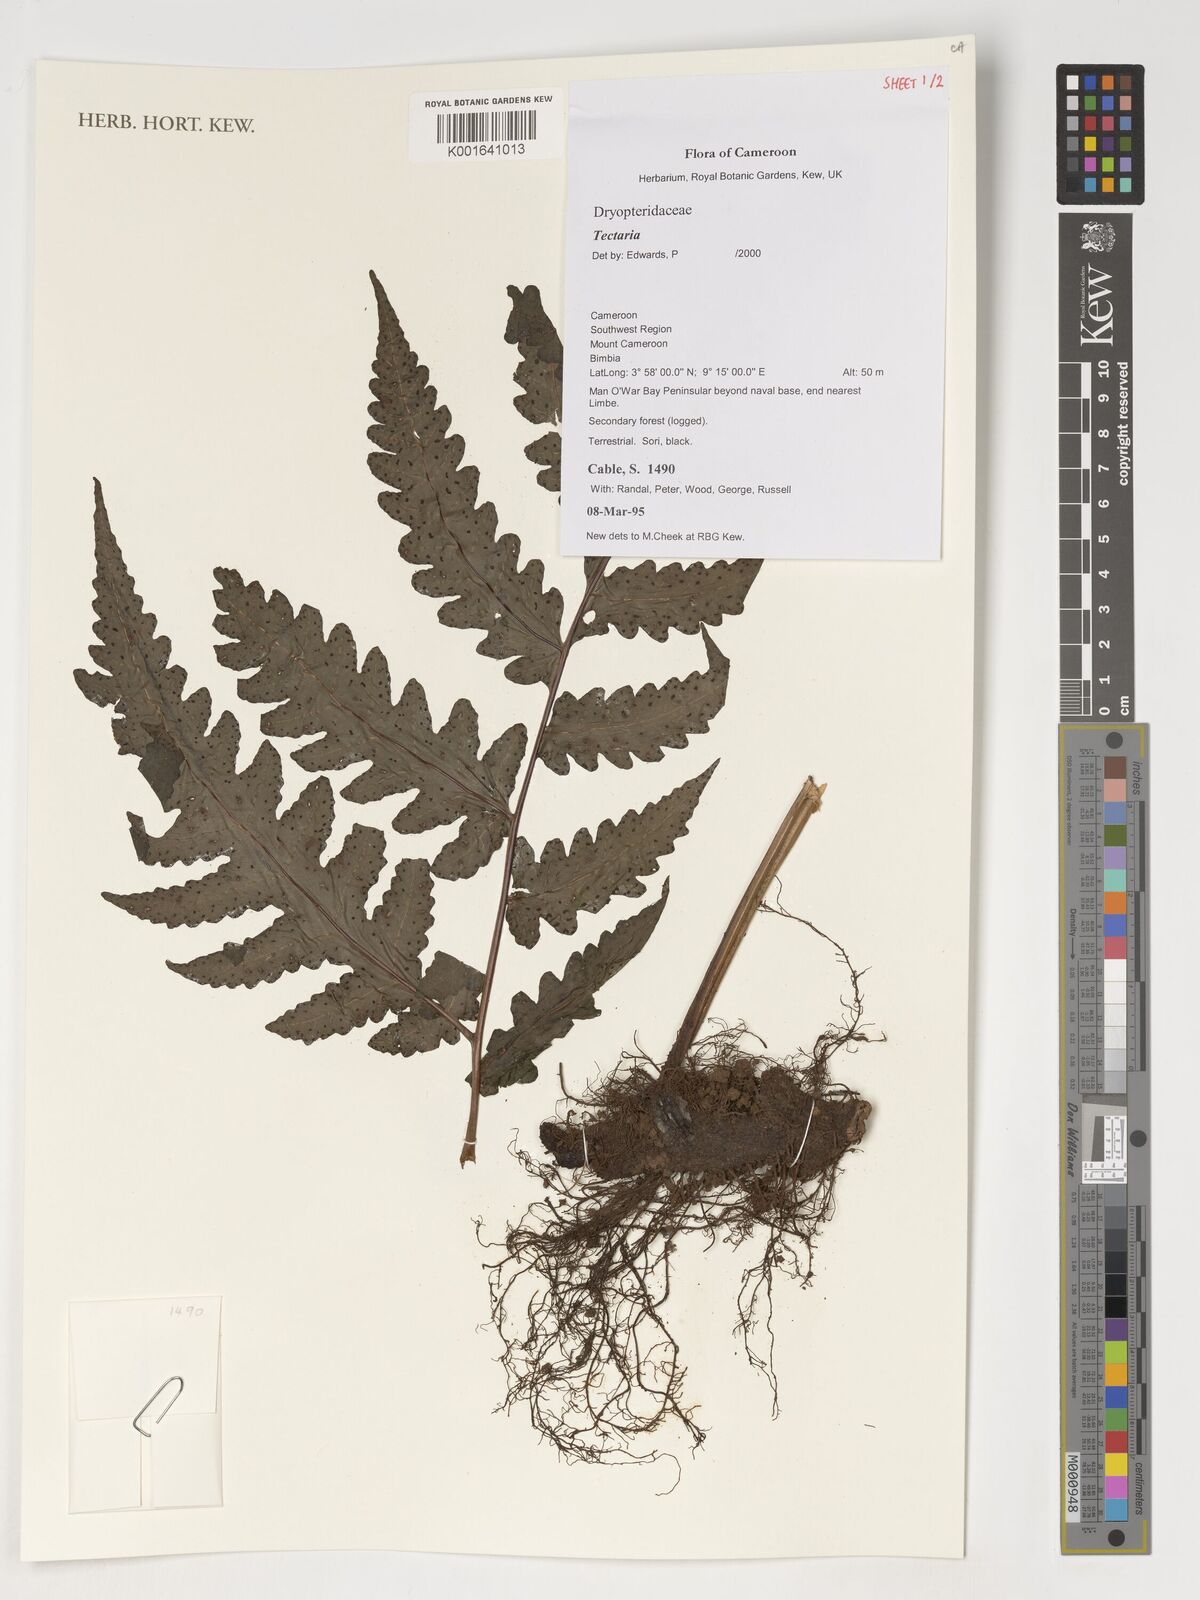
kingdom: Plantae
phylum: Tracheophyta
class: Polypodiopsida
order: Polypodiales
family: Tectariaceae
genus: Tectaria
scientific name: Tectaria
